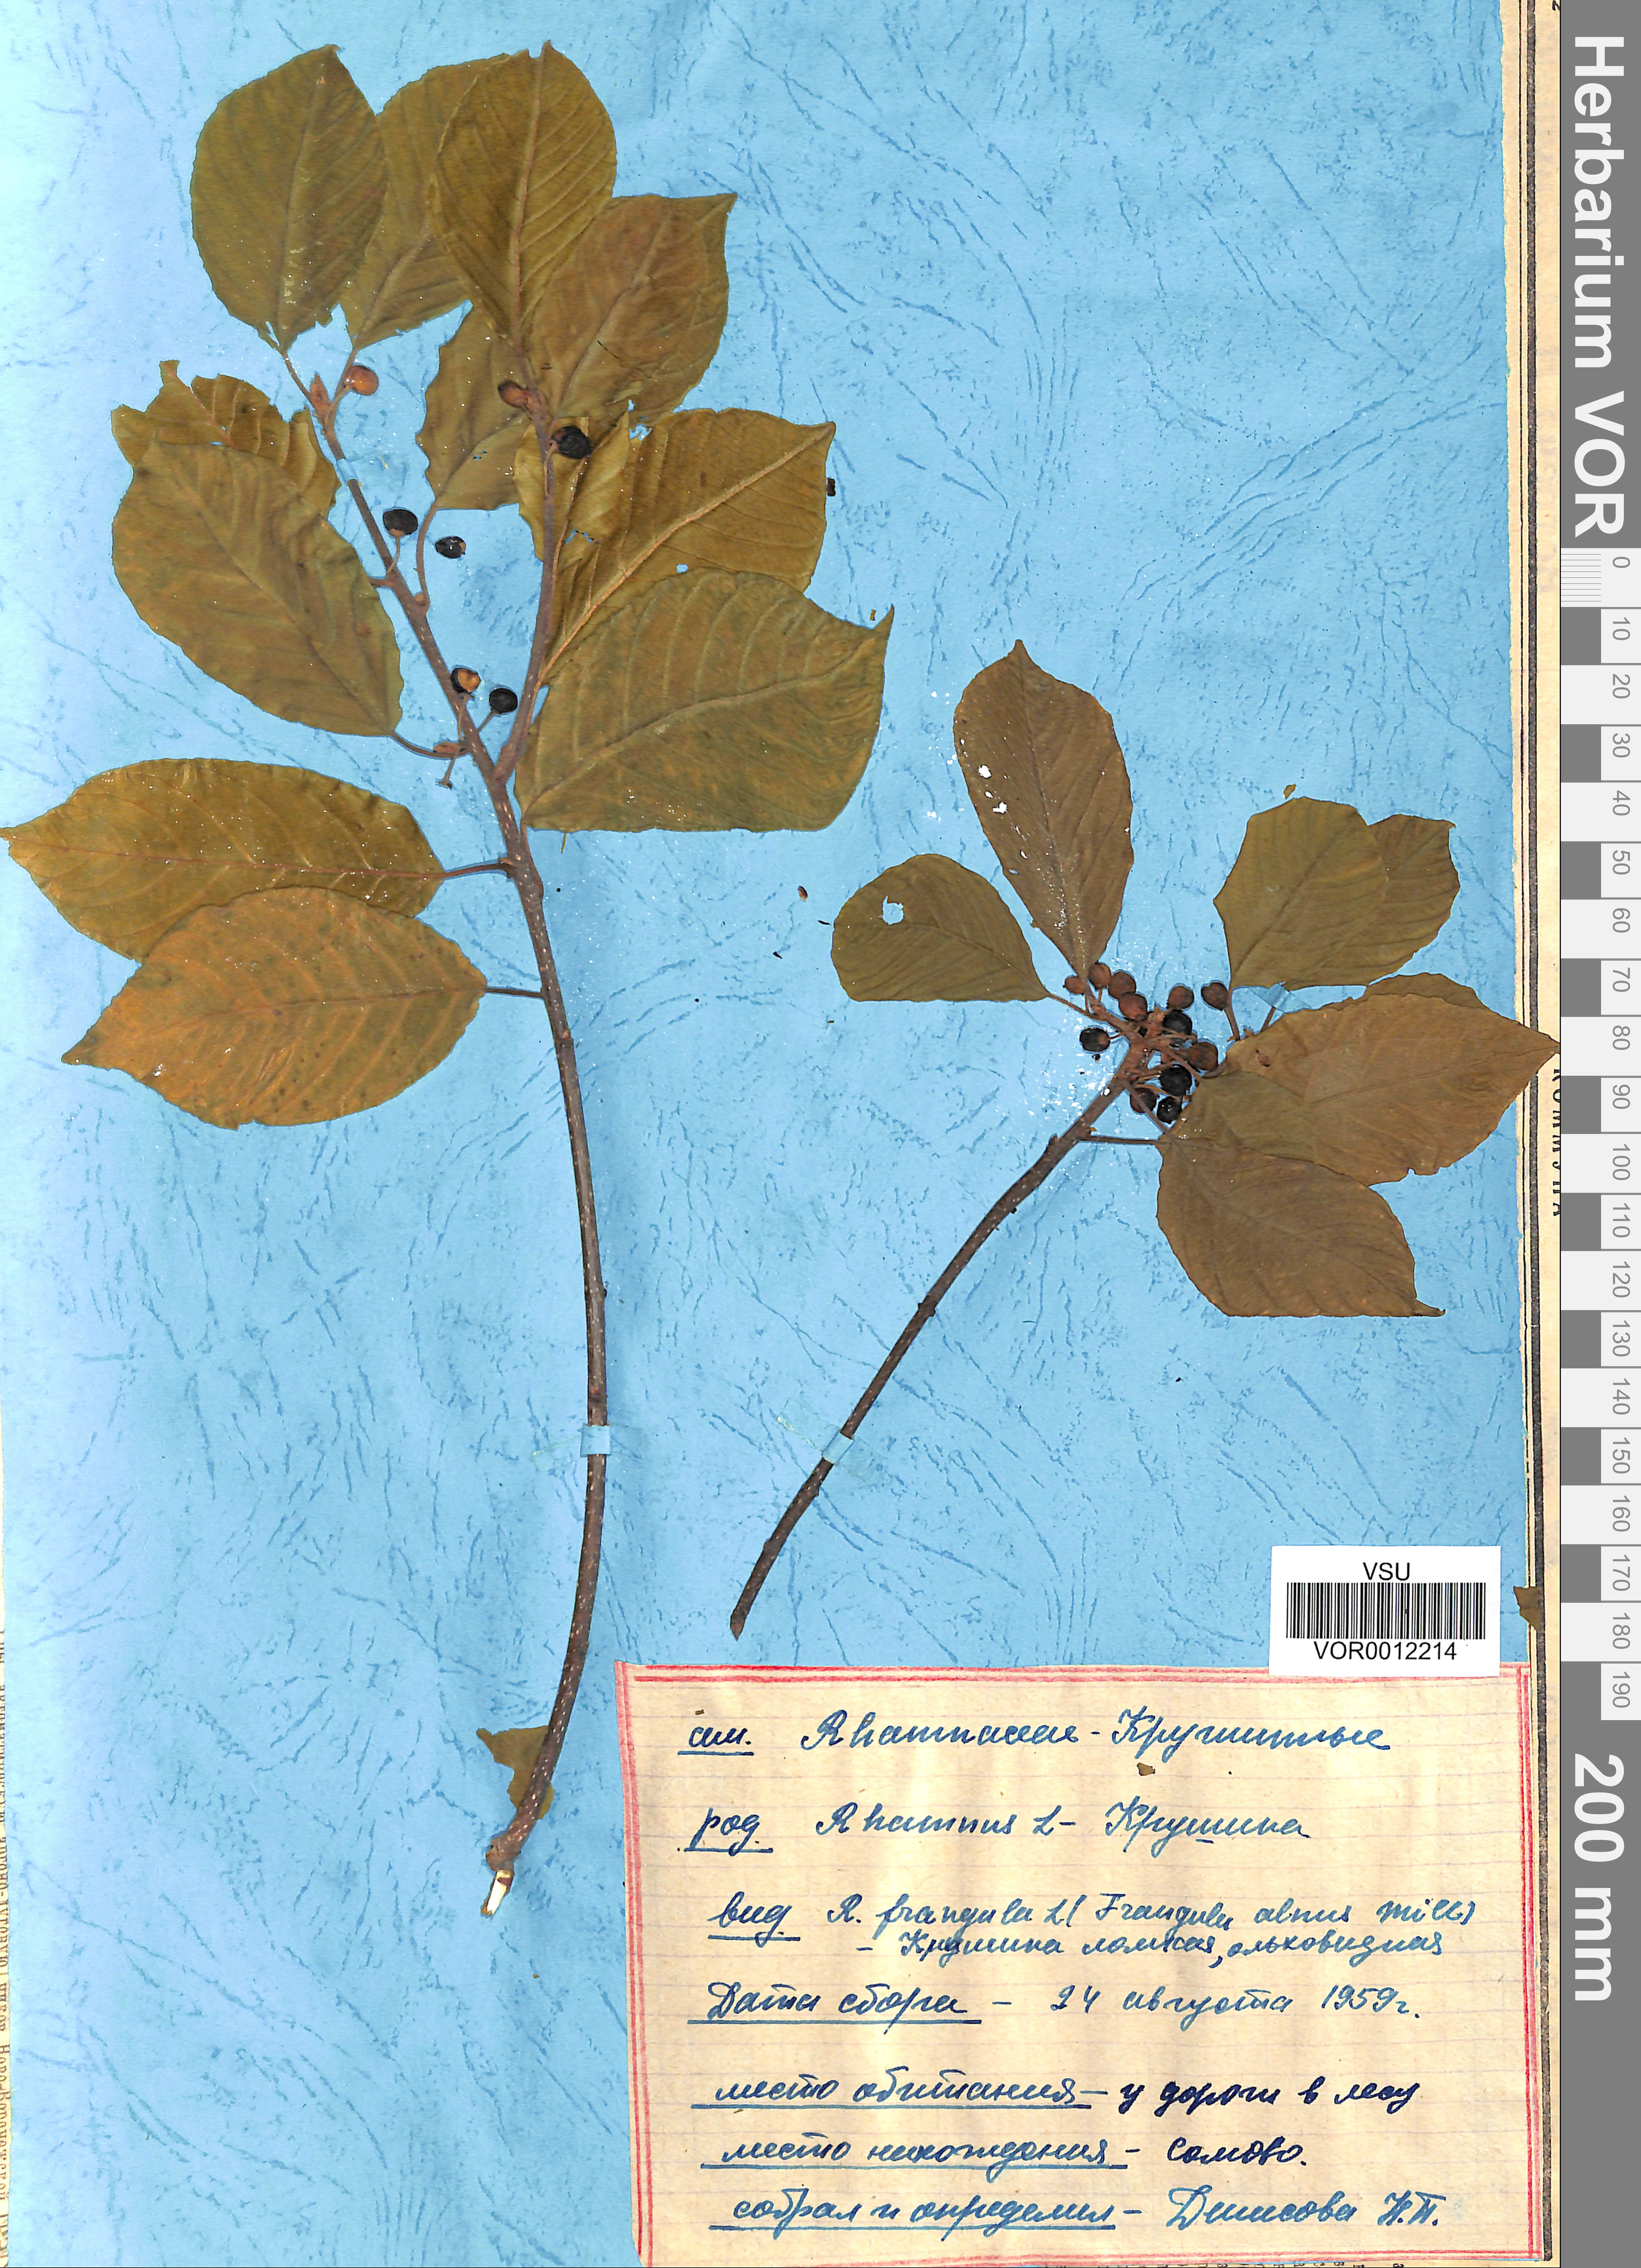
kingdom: Plantae
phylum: Tracheophyta
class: Magnoliopsida
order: Rosales
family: Rhamnaceae
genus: Frangula
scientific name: Frangula alnus
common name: Alder buckthorn
